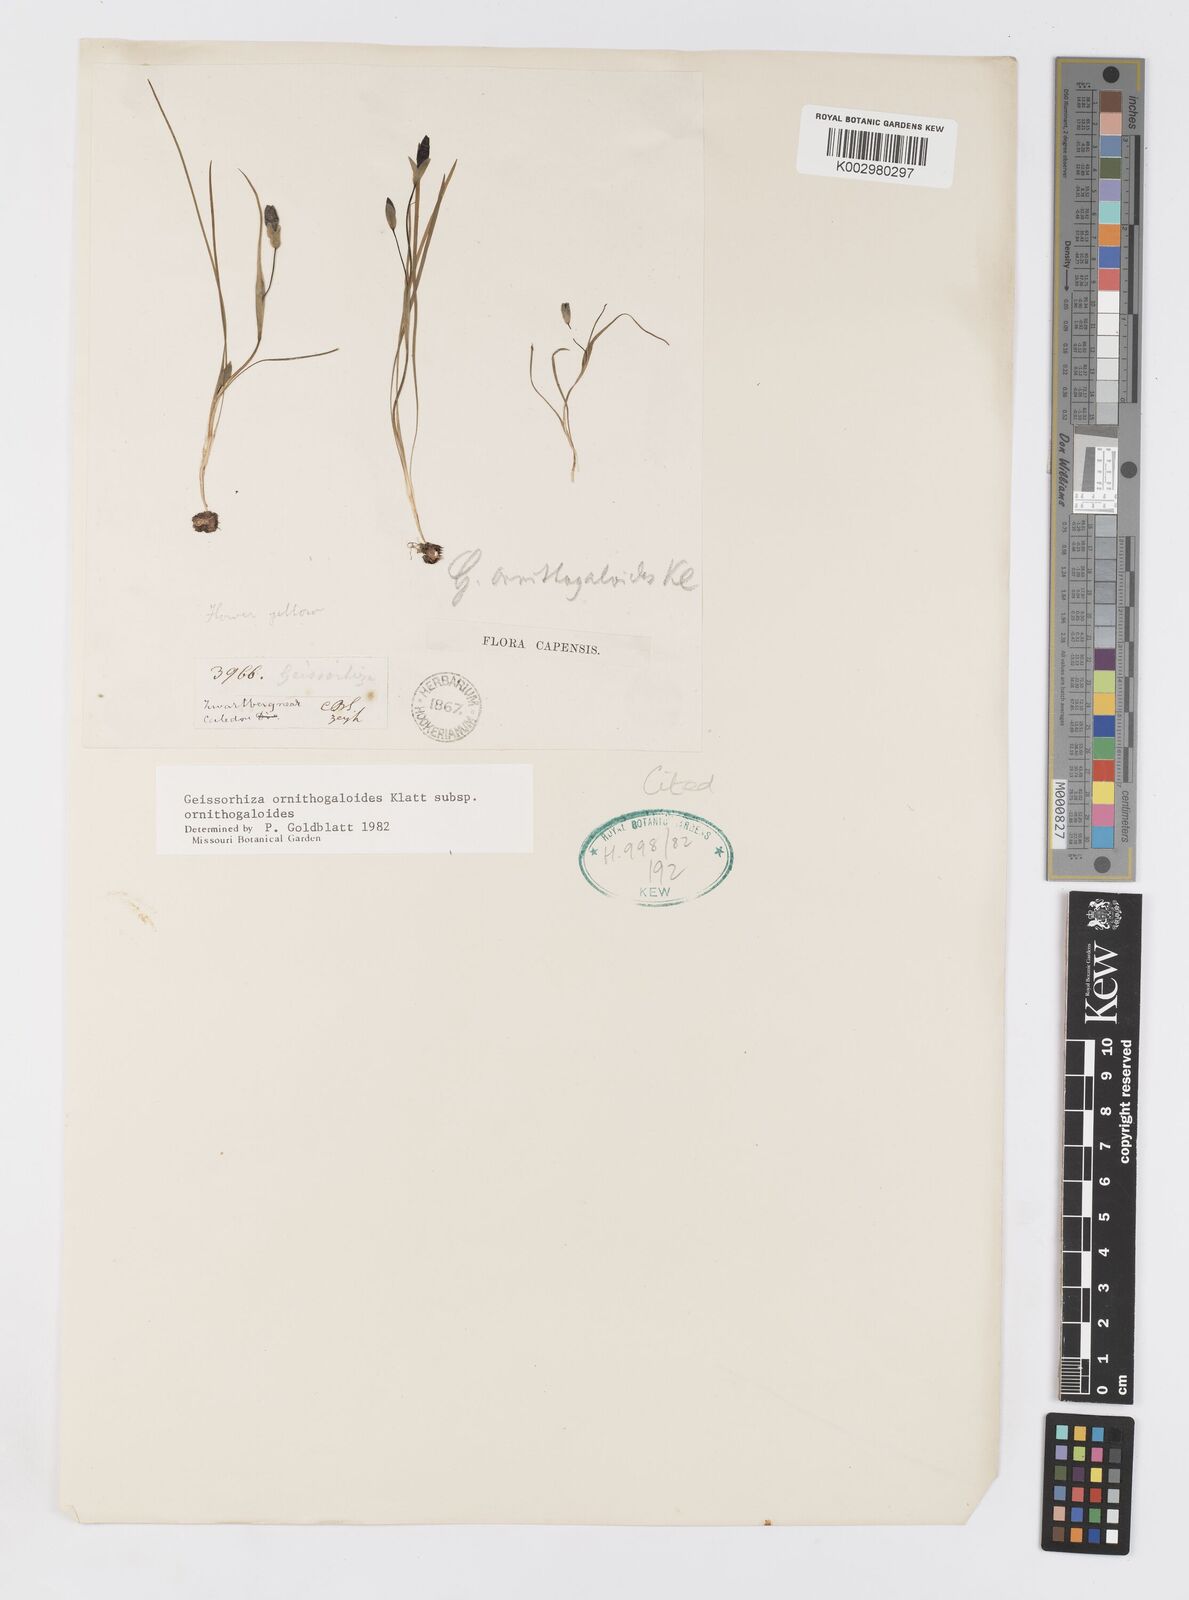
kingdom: Plantae
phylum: Tracheophyta
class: Liliopsida
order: Asparagales
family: Iridaceae
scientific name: Iridaceae
